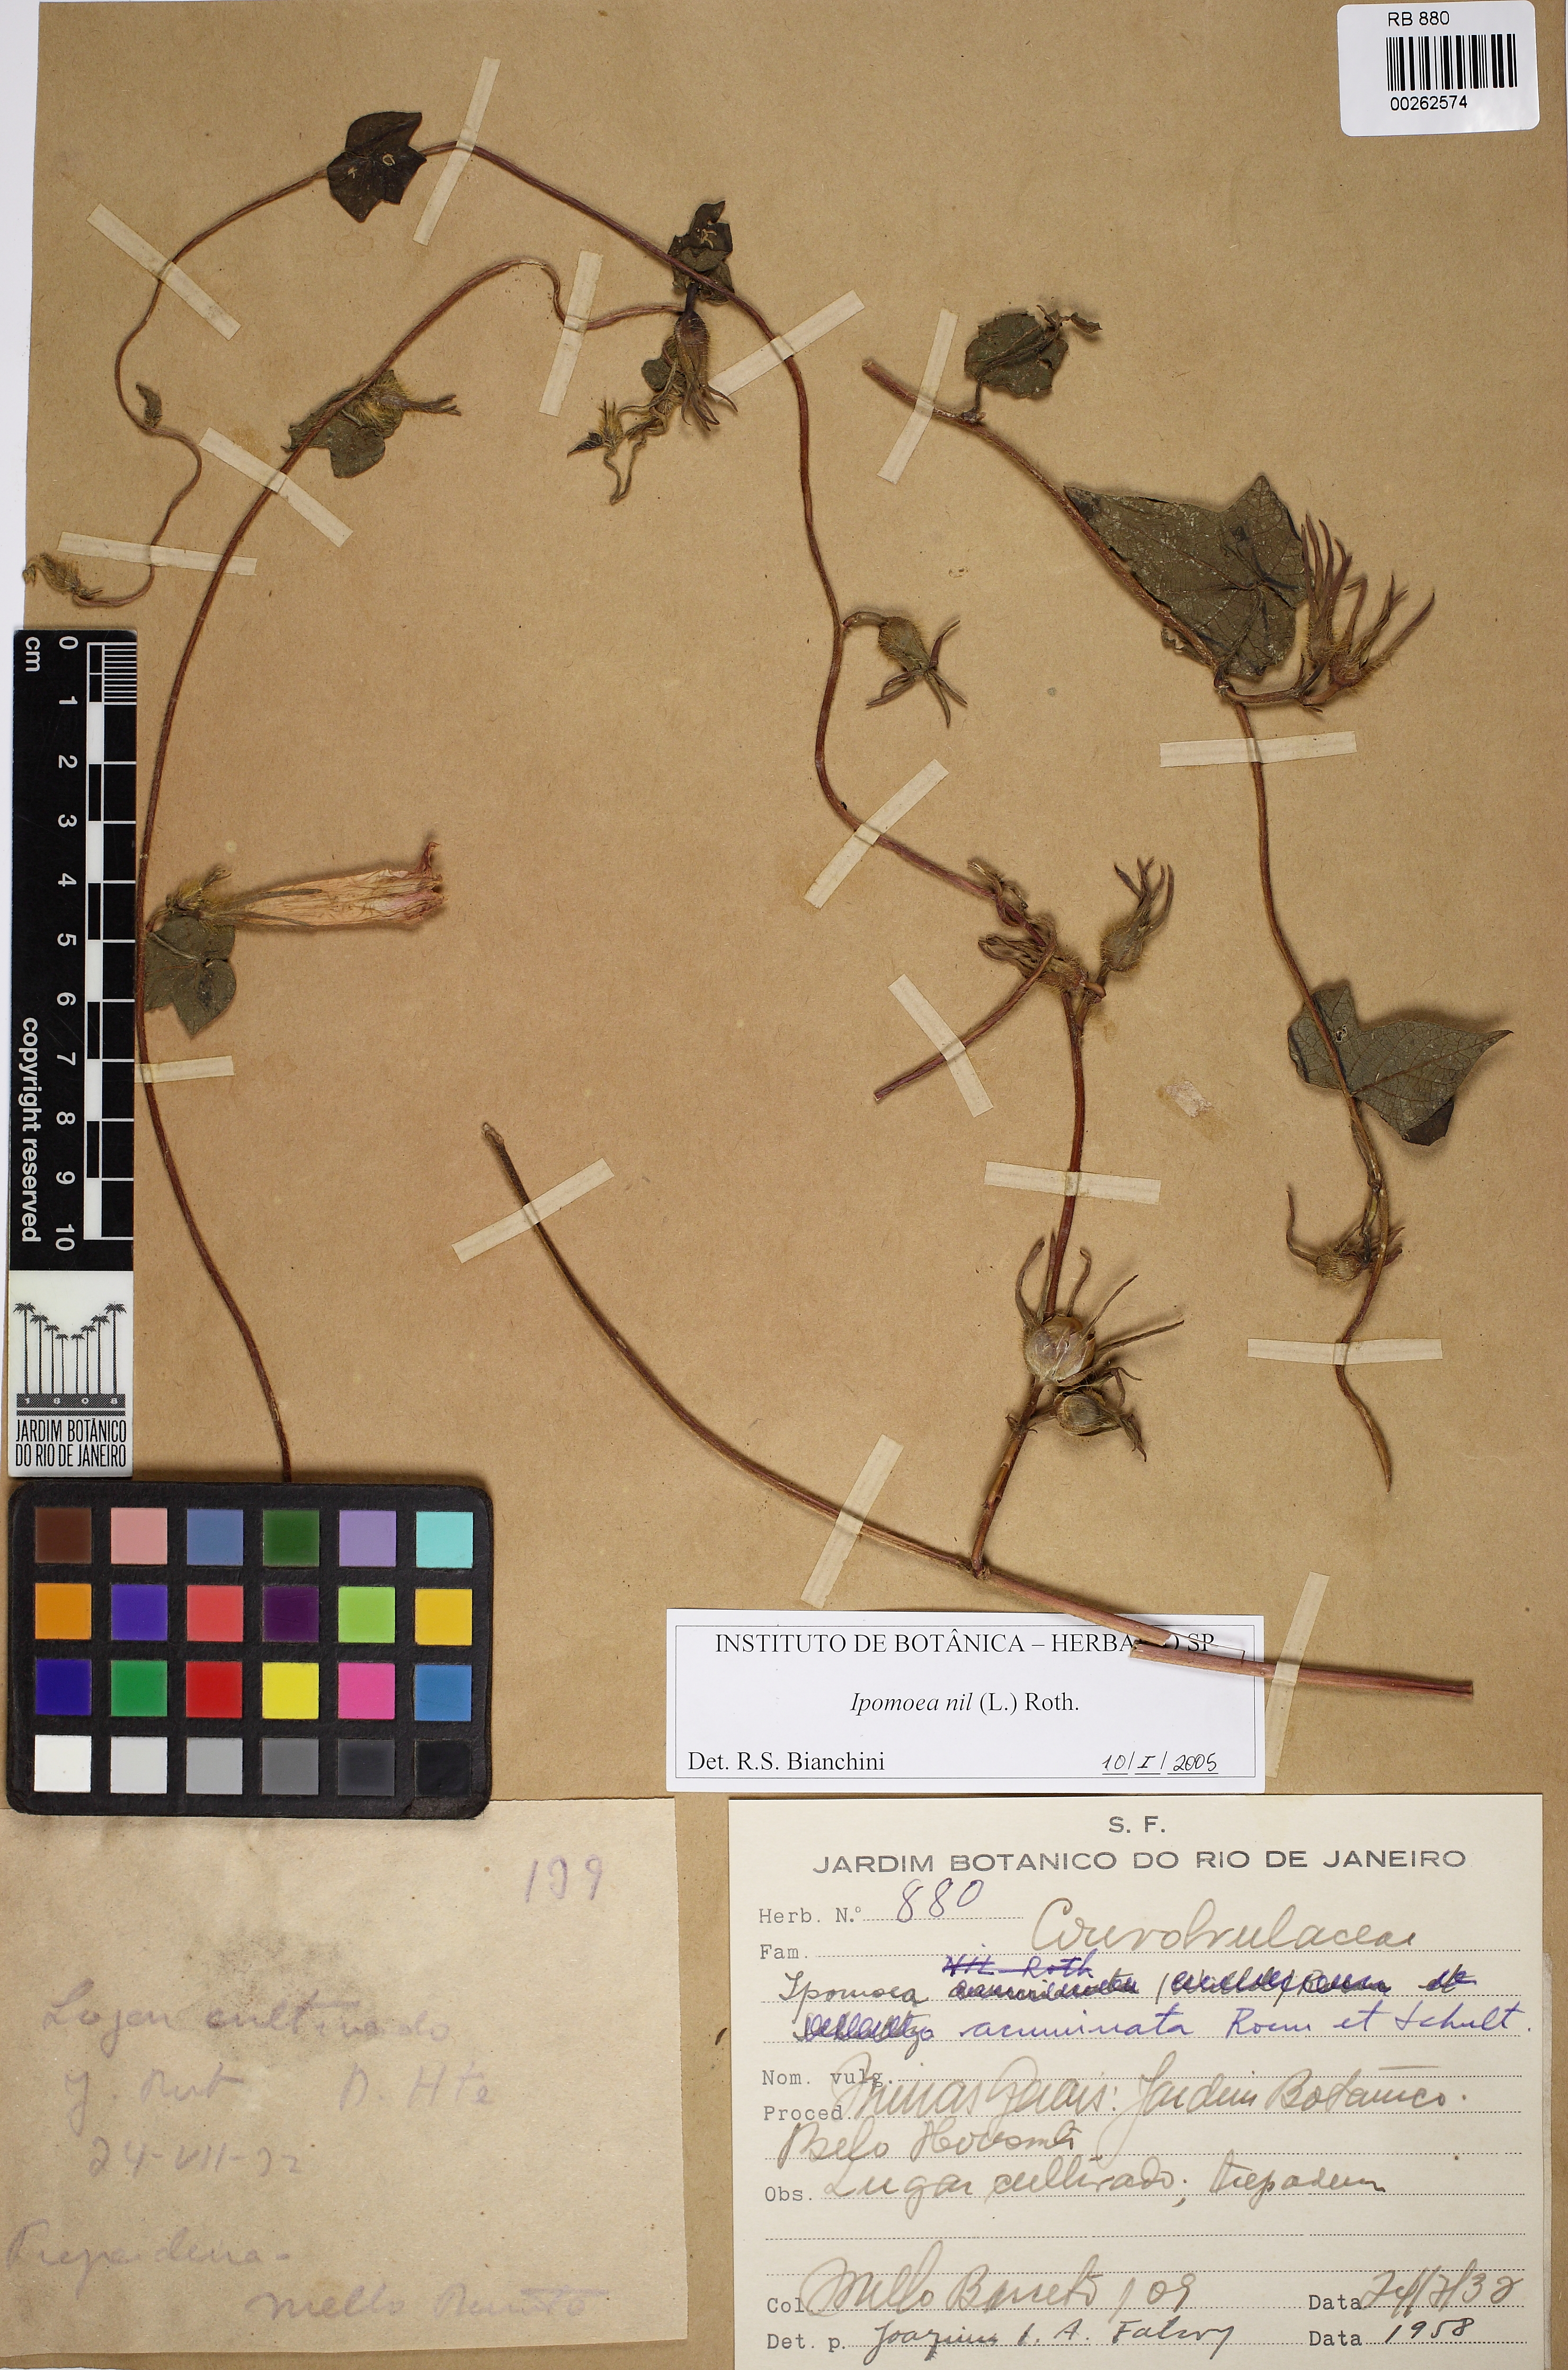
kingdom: Plantae
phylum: Tracheophyta
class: Magnoliopsida
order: Solanales
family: Convolvulaceae
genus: Ipomoea
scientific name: Ipomoea nil
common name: Japanese morning-glory
